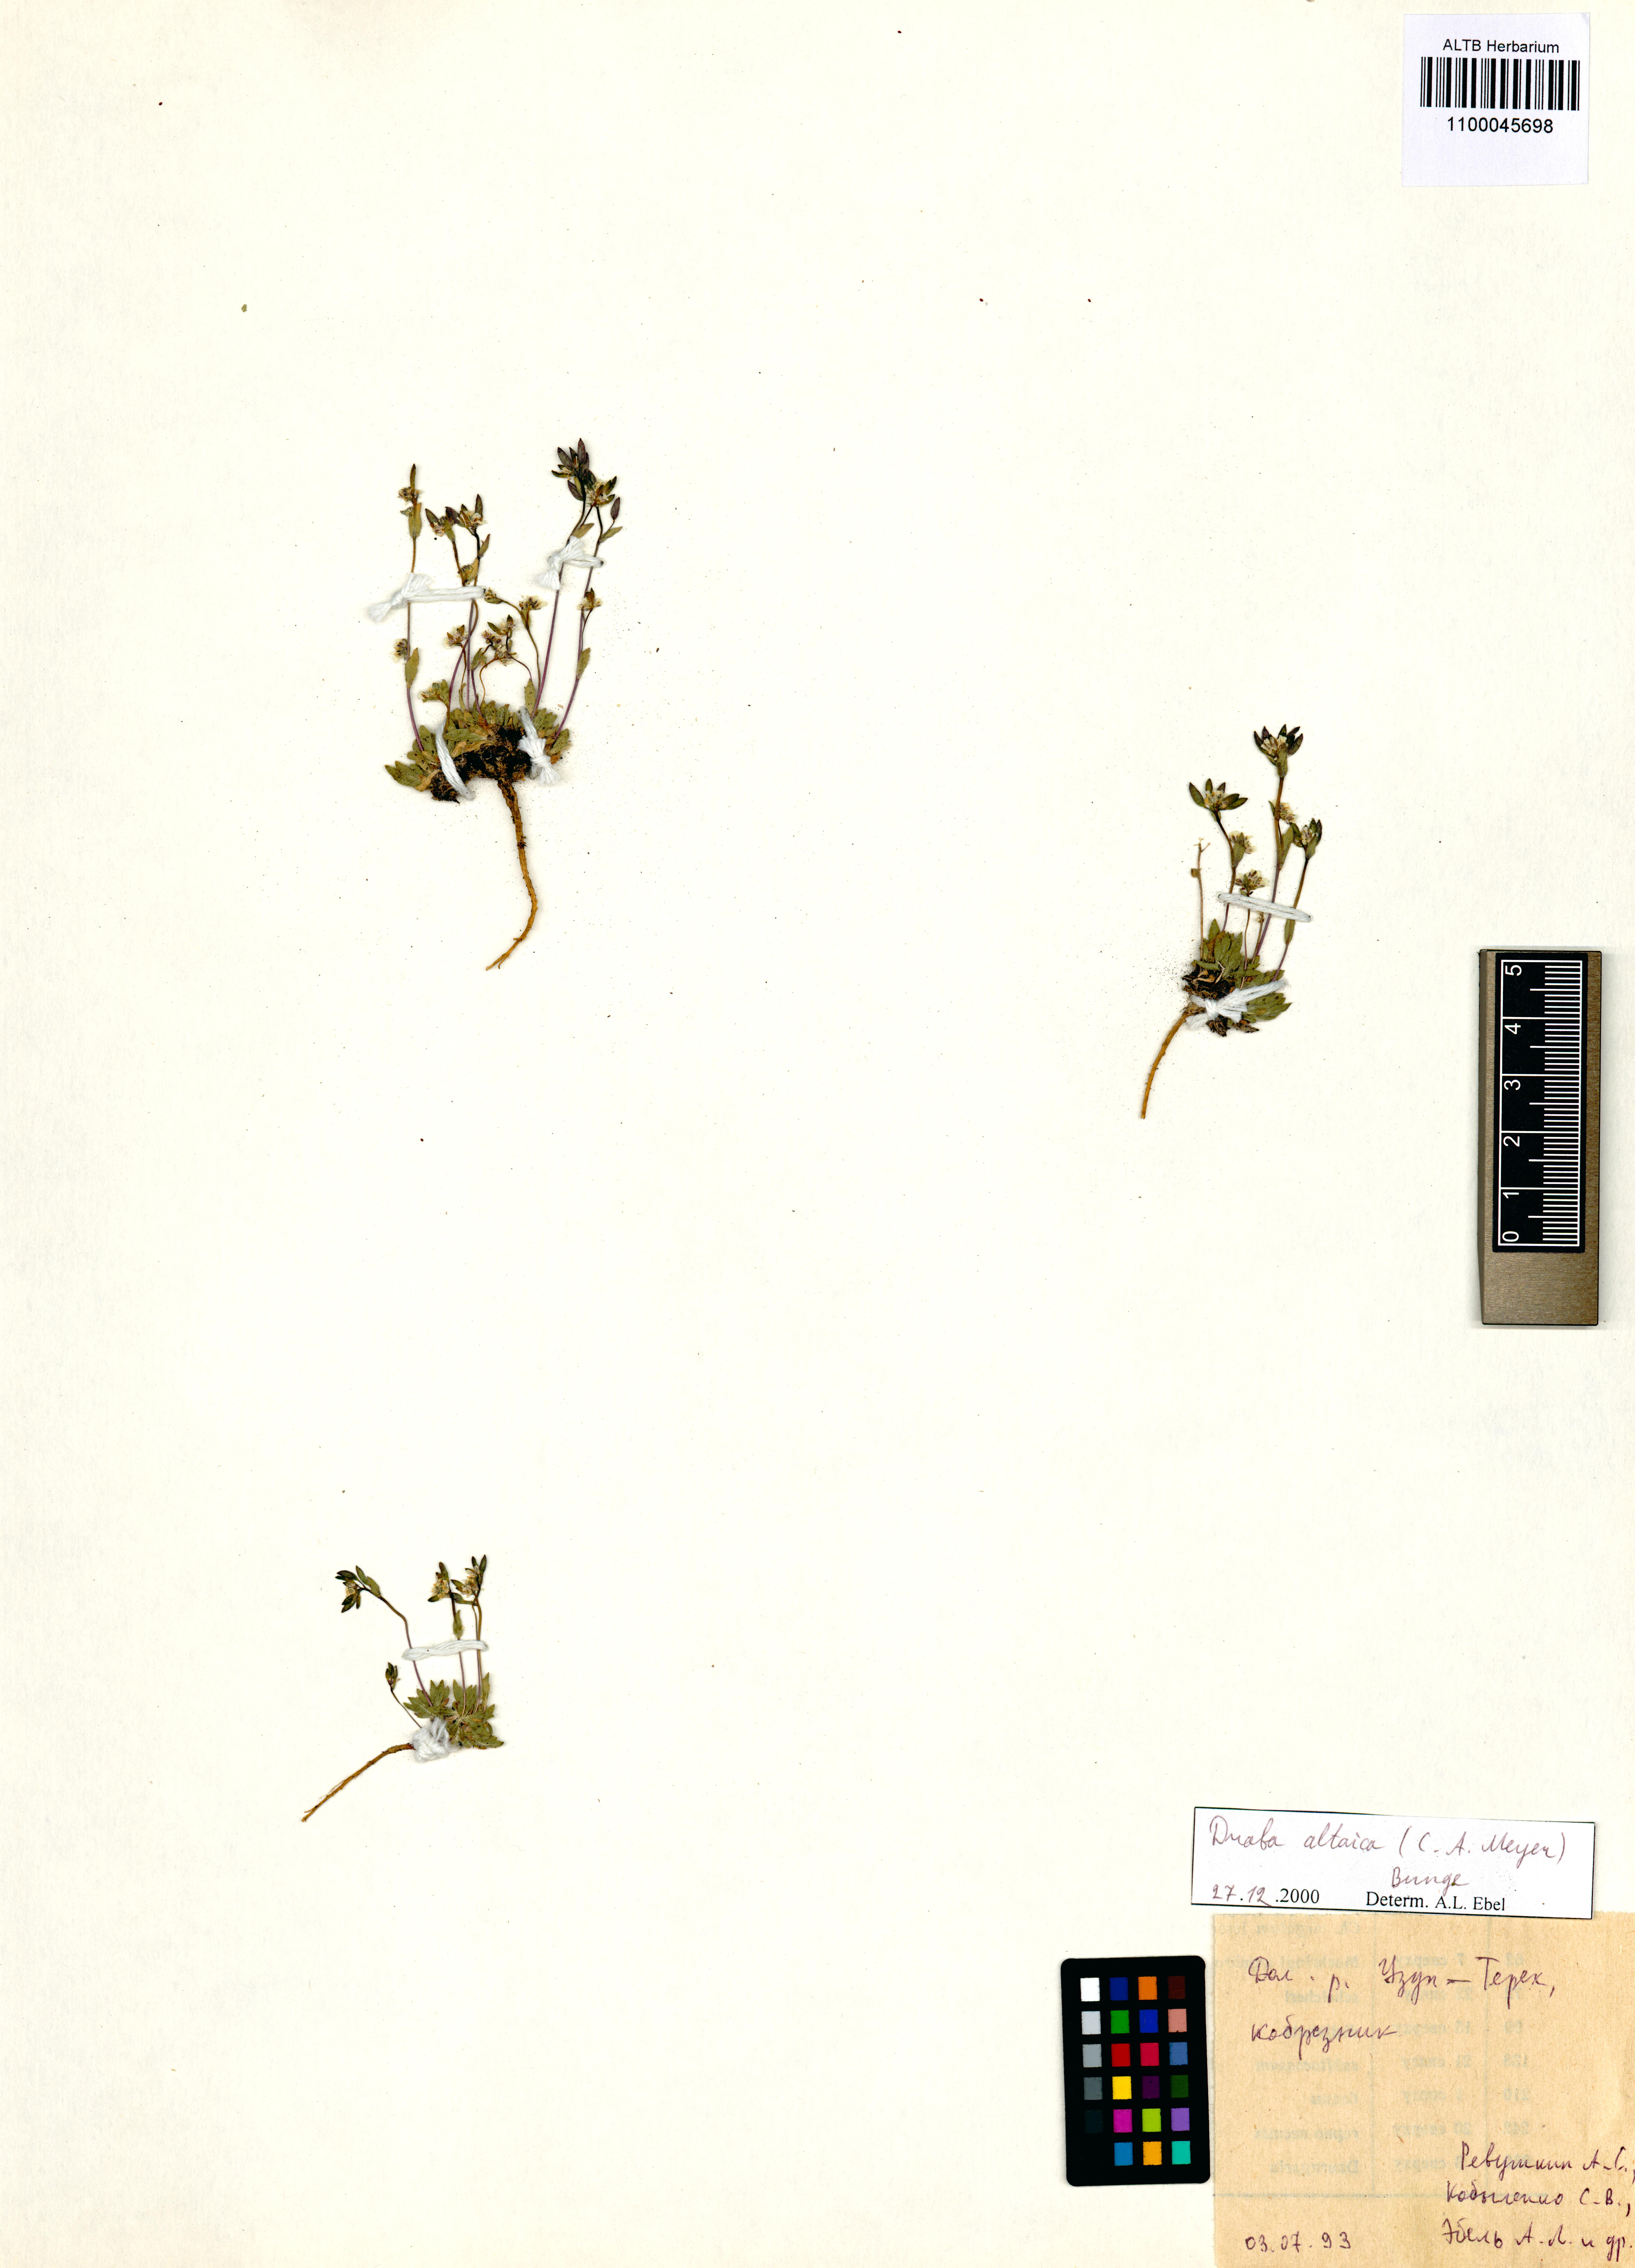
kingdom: Plantae
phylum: Tracheophyta
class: Magnoliopsida
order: Brassicales
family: Brassicaceae
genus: Draba
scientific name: Draba altaica
